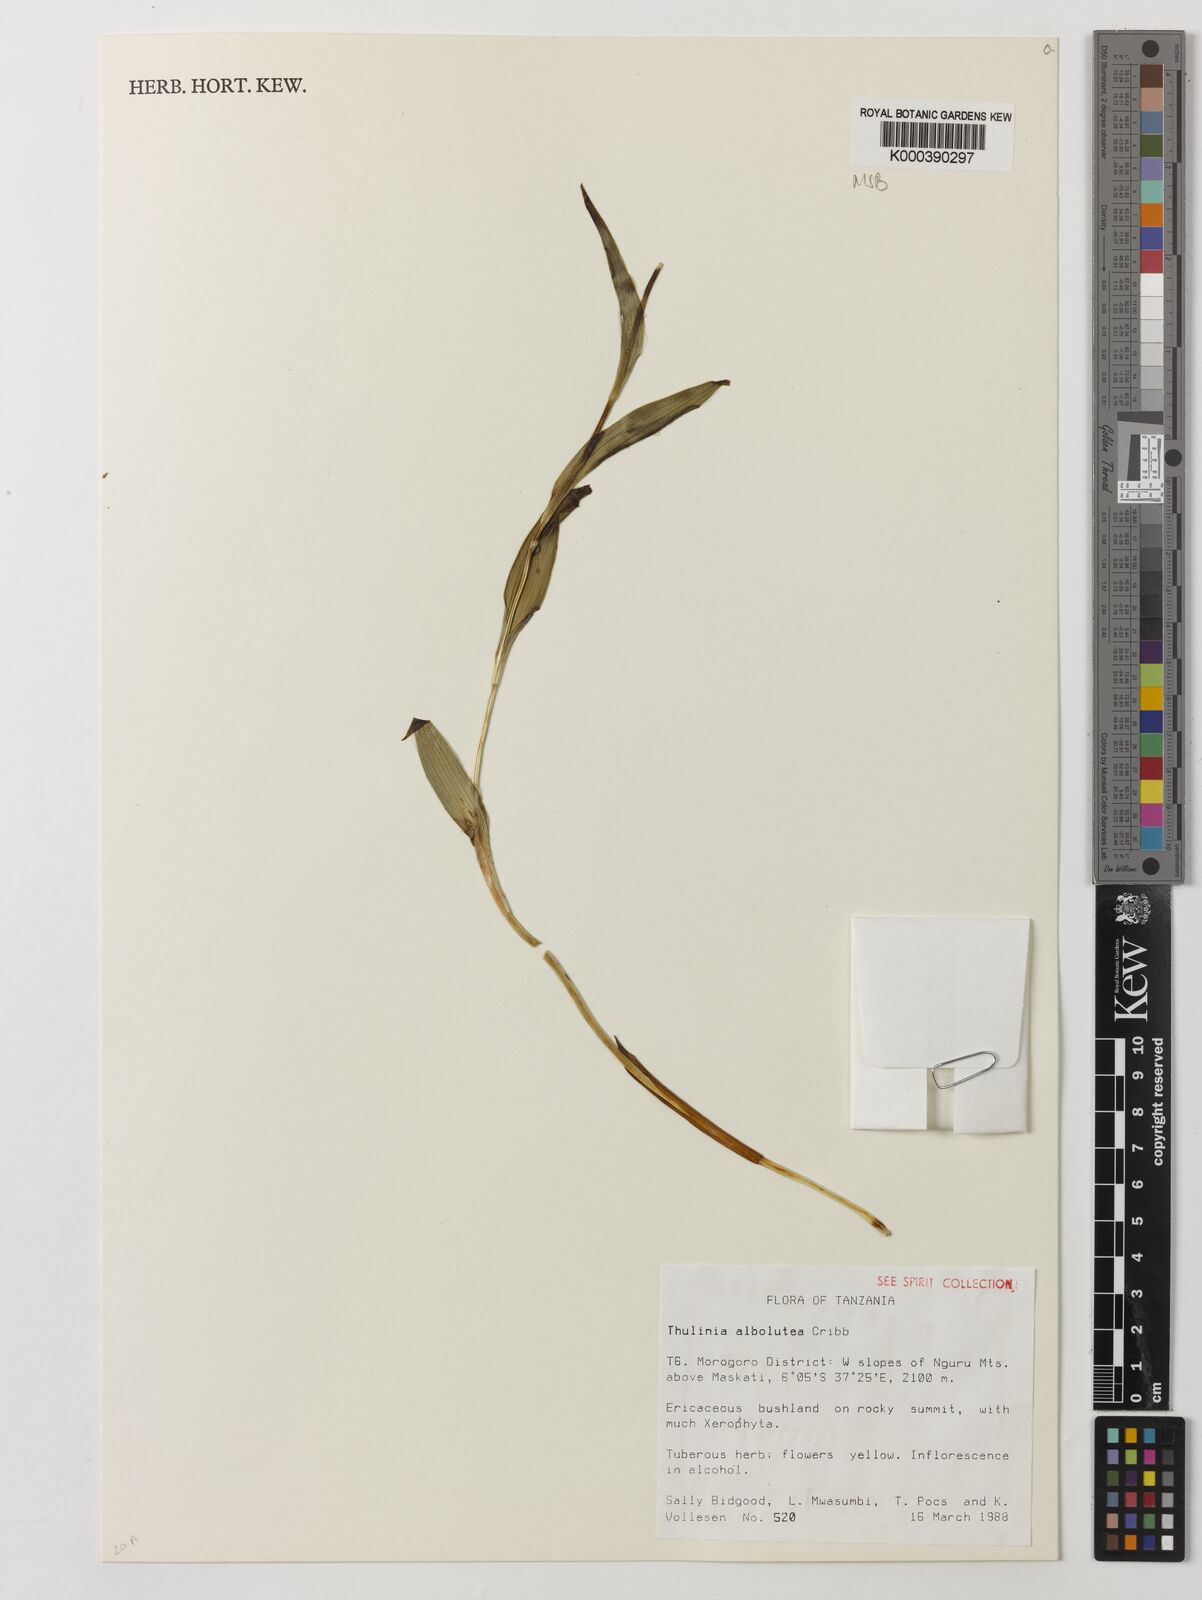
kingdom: Plantae
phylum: Tracheophyta
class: Liliopsida
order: Asparagales
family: Orchidaceae
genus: Thulinia
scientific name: Thulinia albolutea
